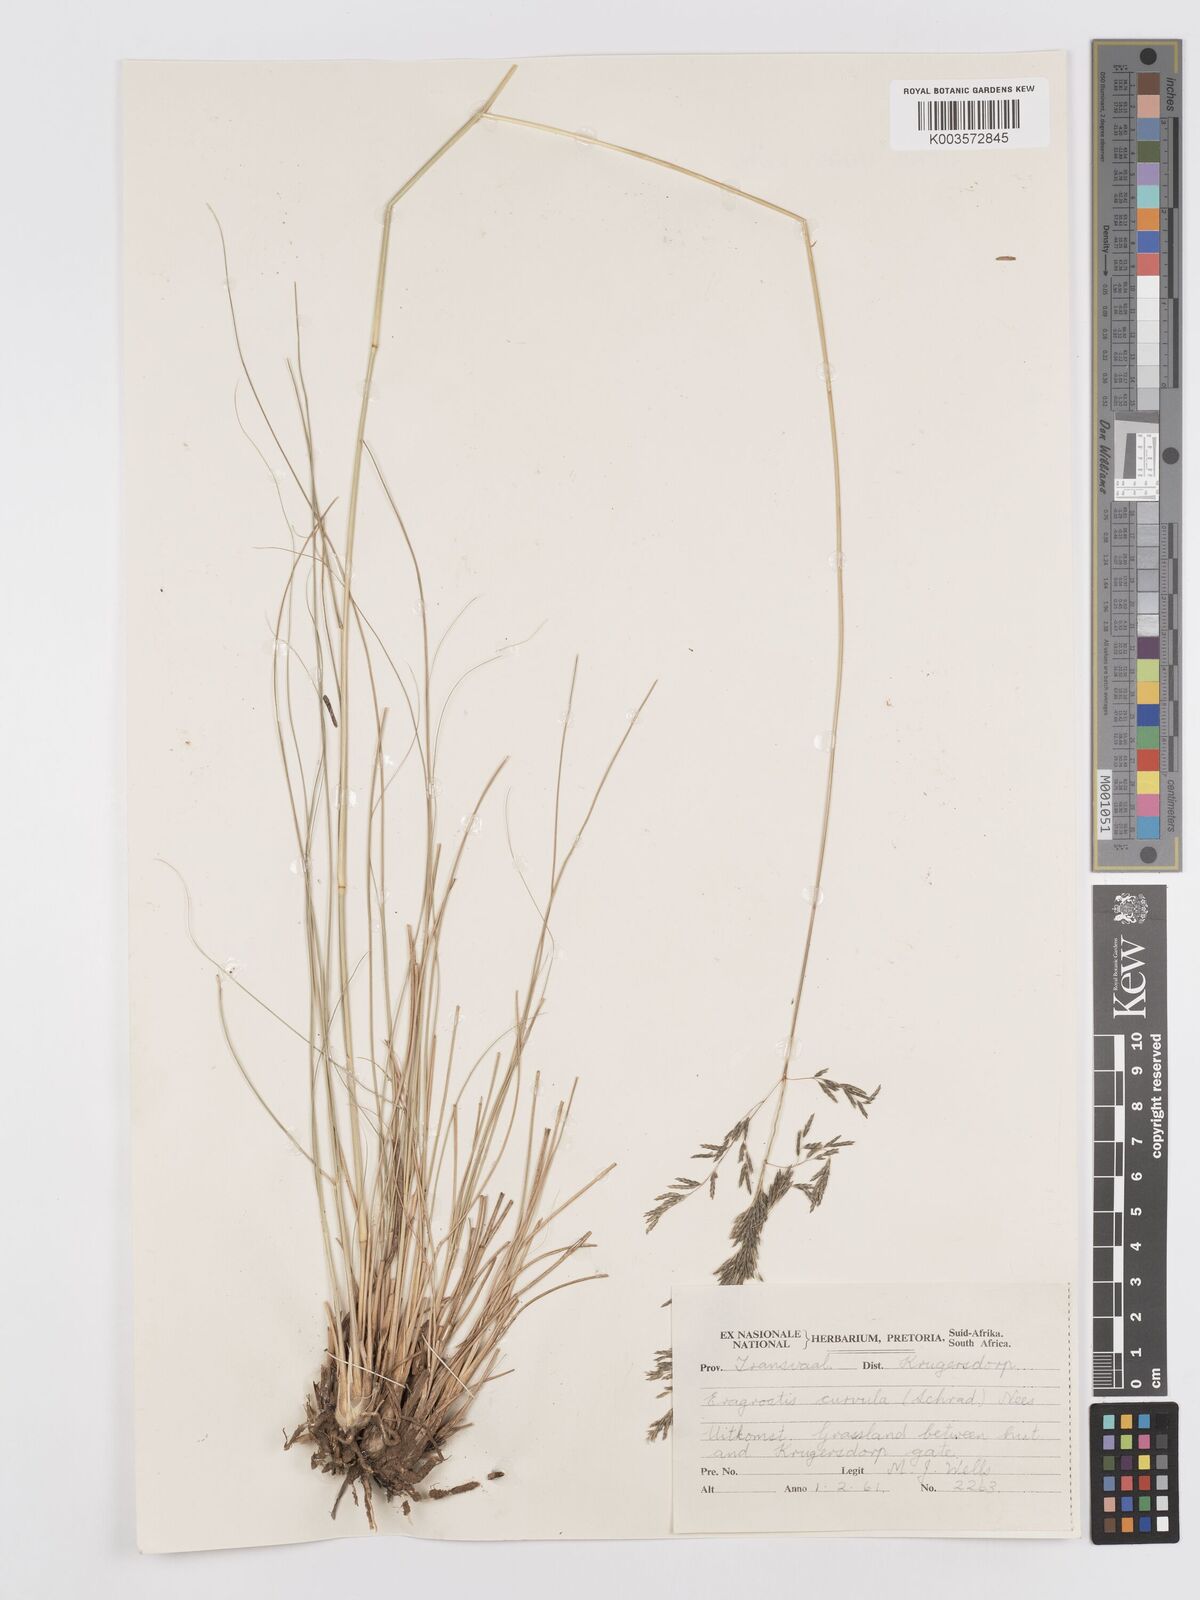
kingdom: Plantae
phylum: Tracheophyta
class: Liliopsida
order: Poales
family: Poaceae
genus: Eragrostis
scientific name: Eragrostis curvula
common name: African love-grass
